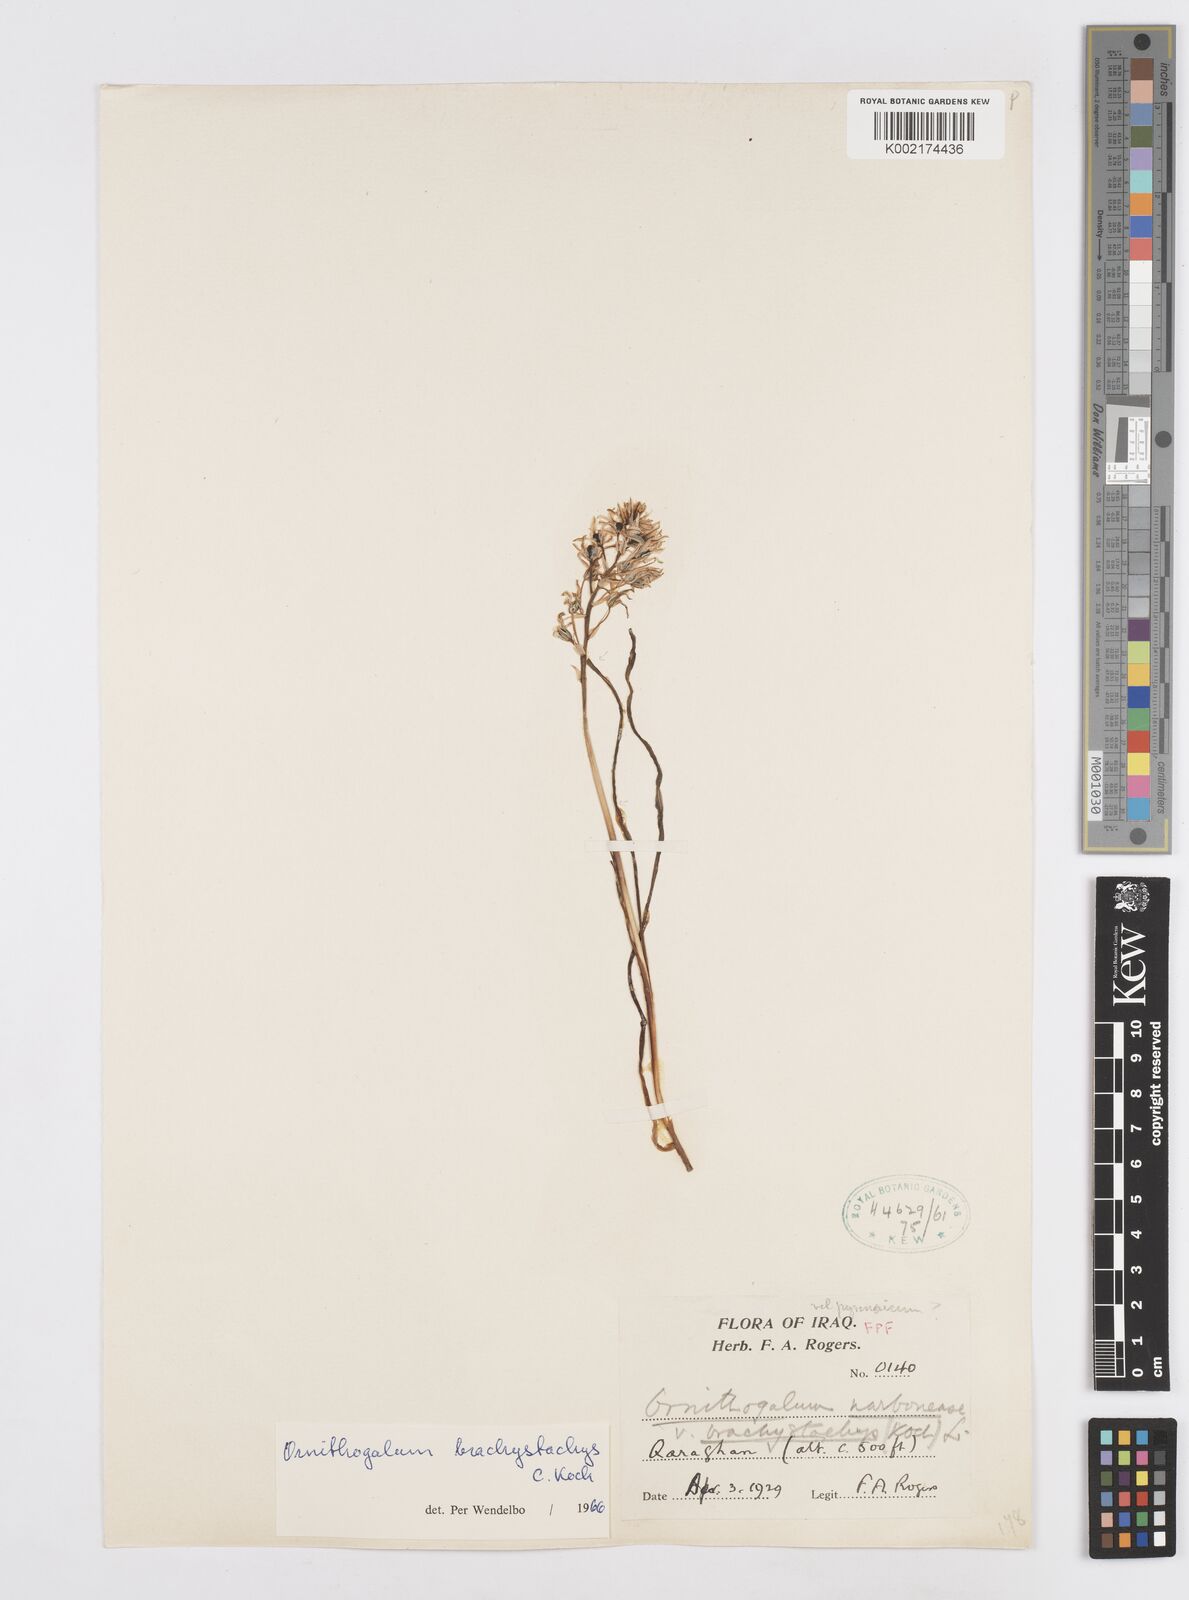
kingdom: Plantae
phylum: Tracheophyta
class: Liliopsida
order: Asparagales
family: Asparagaceae
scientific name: Asparagaceae
